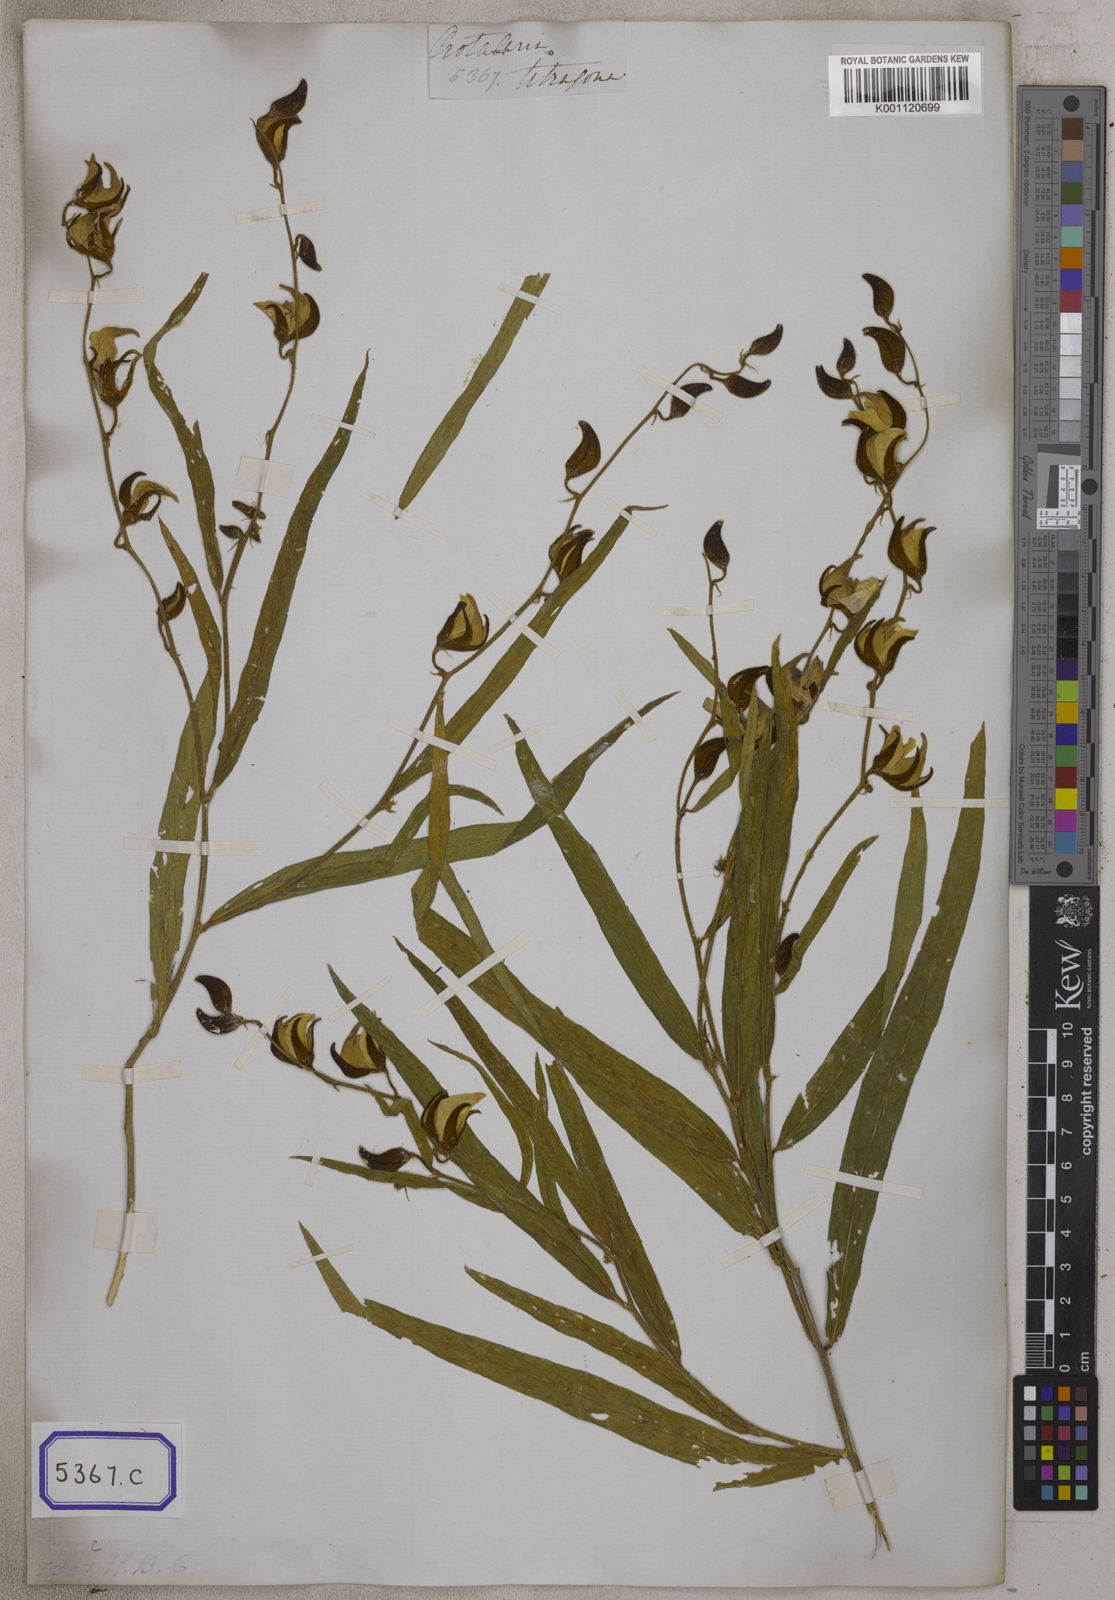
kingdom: Plantae
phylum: Tracheophyta
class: Magnoliopsida
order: Fabales
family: Fabaceae
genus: Crotalaria
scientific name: Crotalaria
